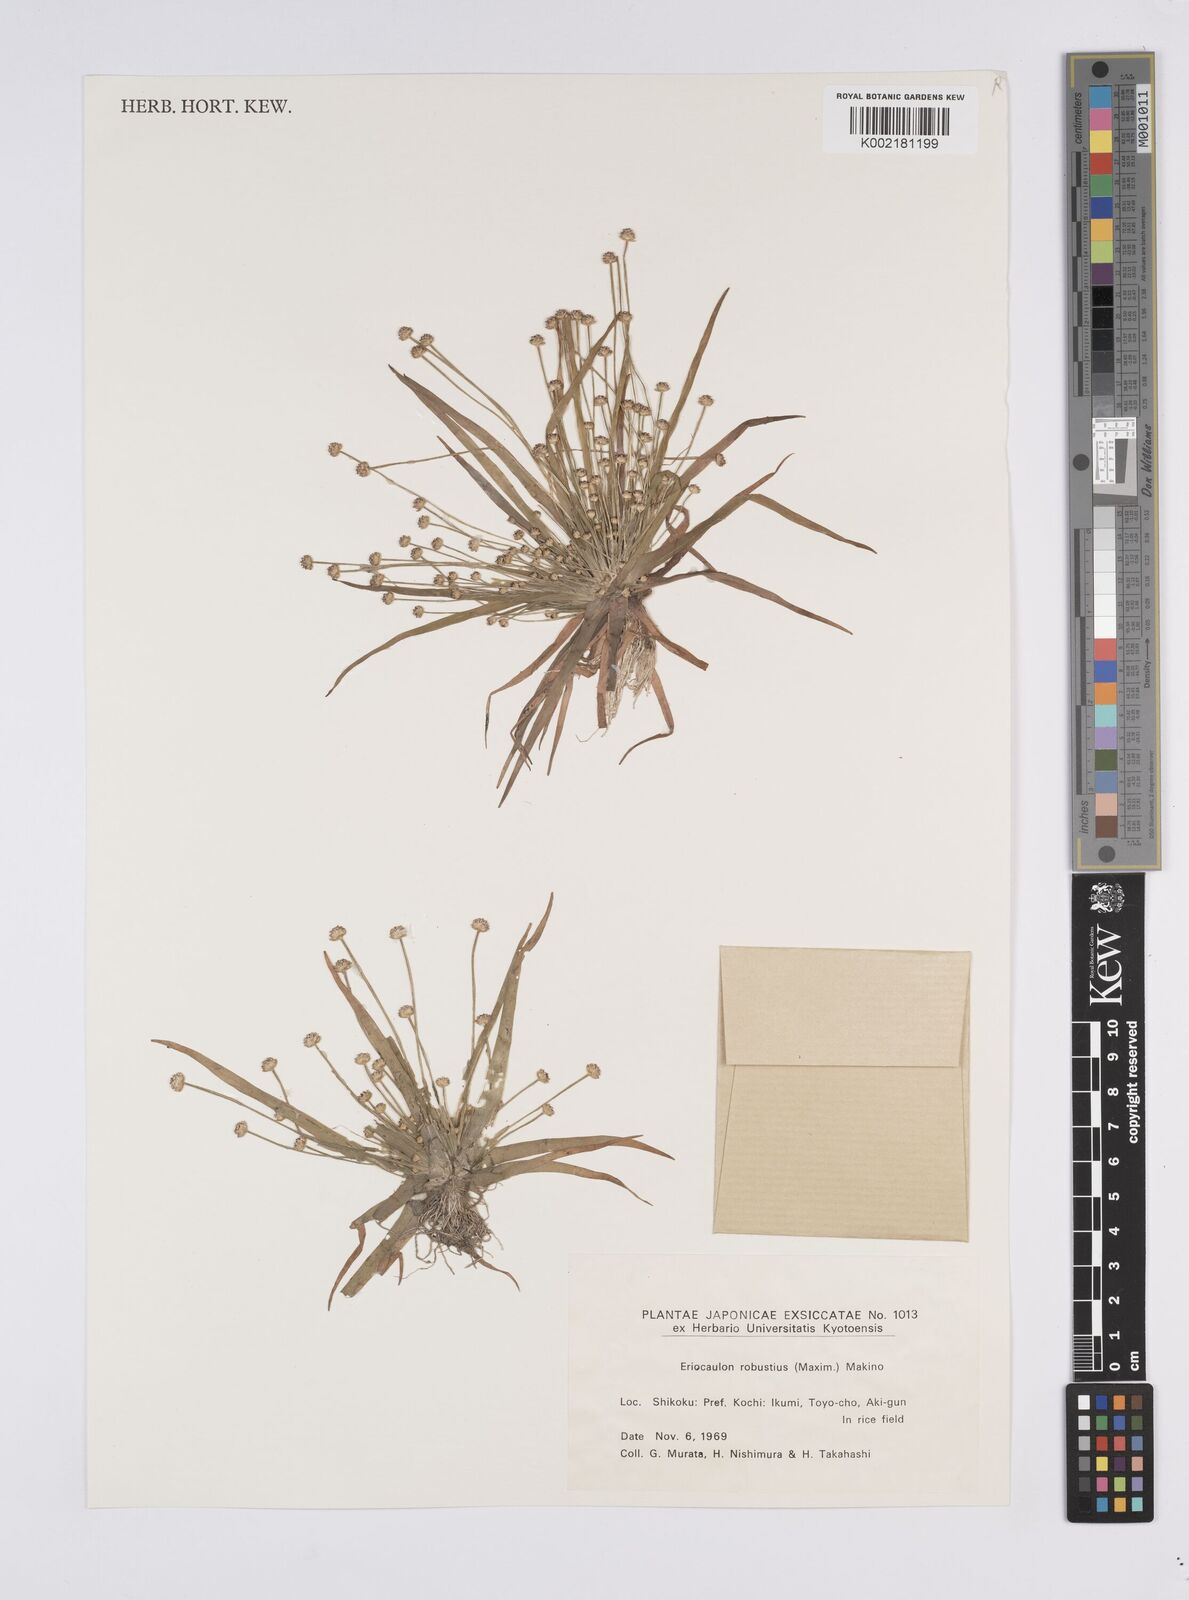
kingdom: Plantae
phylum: Tracheophyta
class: Liliopsida
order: Poales
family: Eriocaulaceae
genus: Eriocaulon
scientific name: Eriocaulon alpestre
